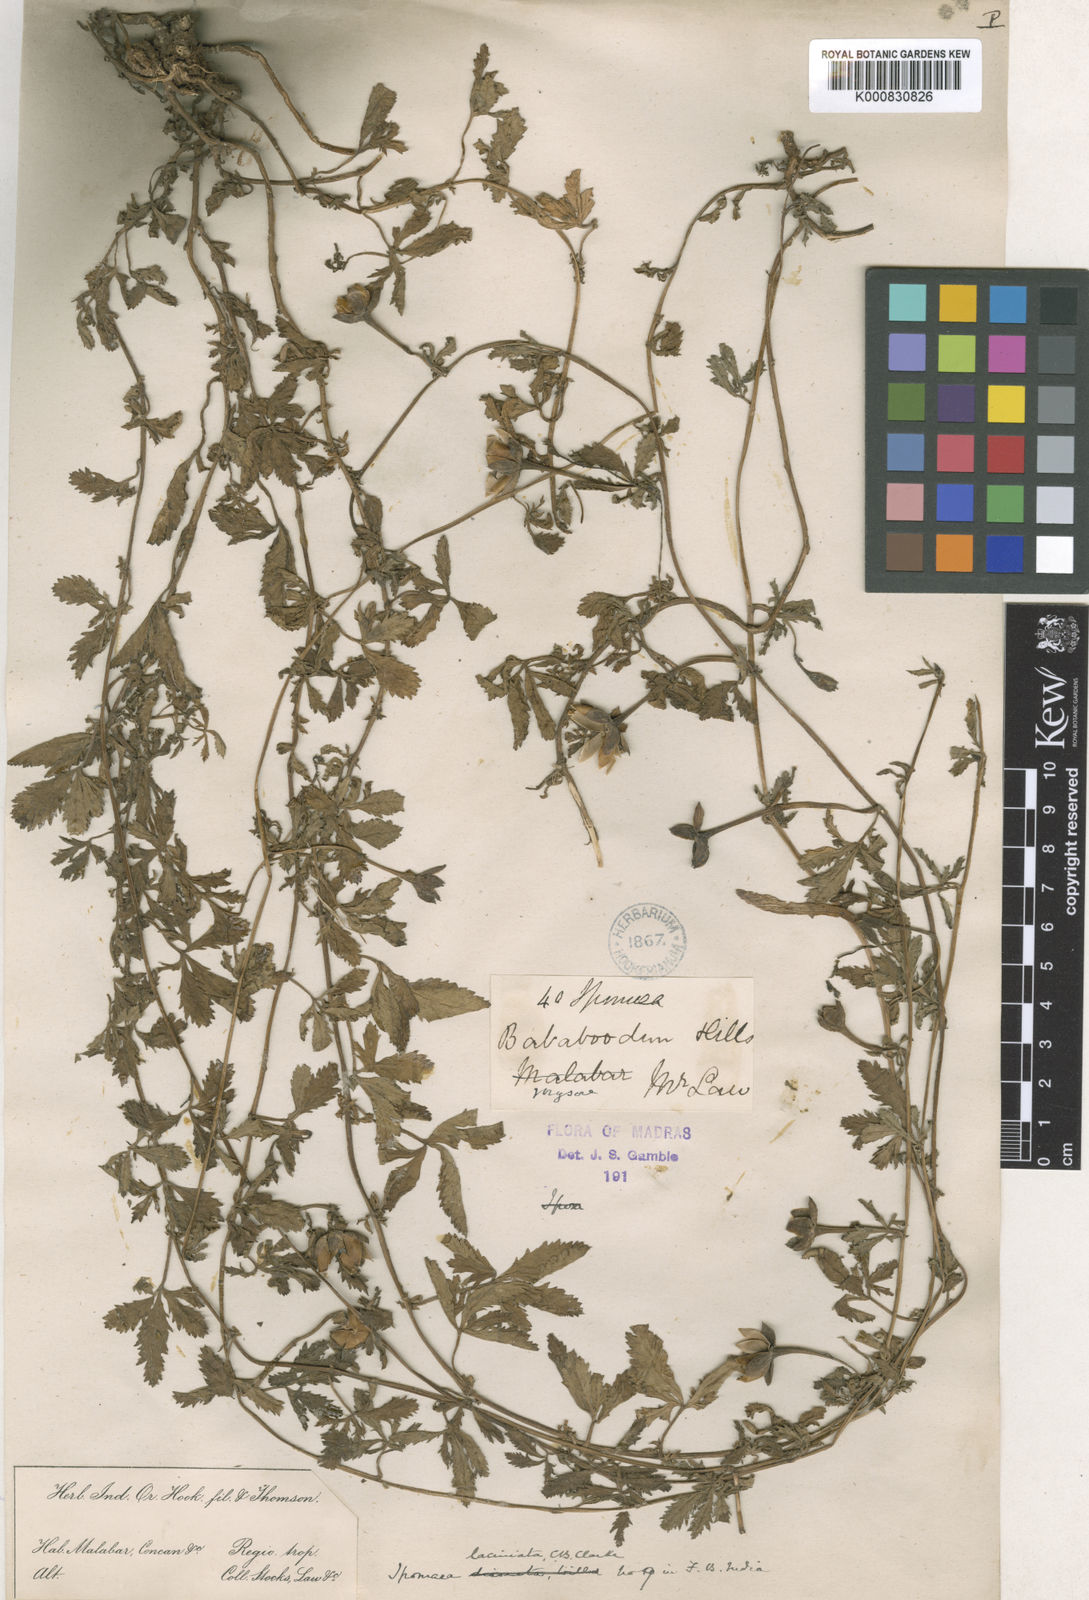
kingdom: Plantae
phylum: Tracheophyta
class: Magnoliopsida
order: Solanales
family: Convolvulaceae
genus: Ipomoea
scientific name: Ipomoea diversifolia
